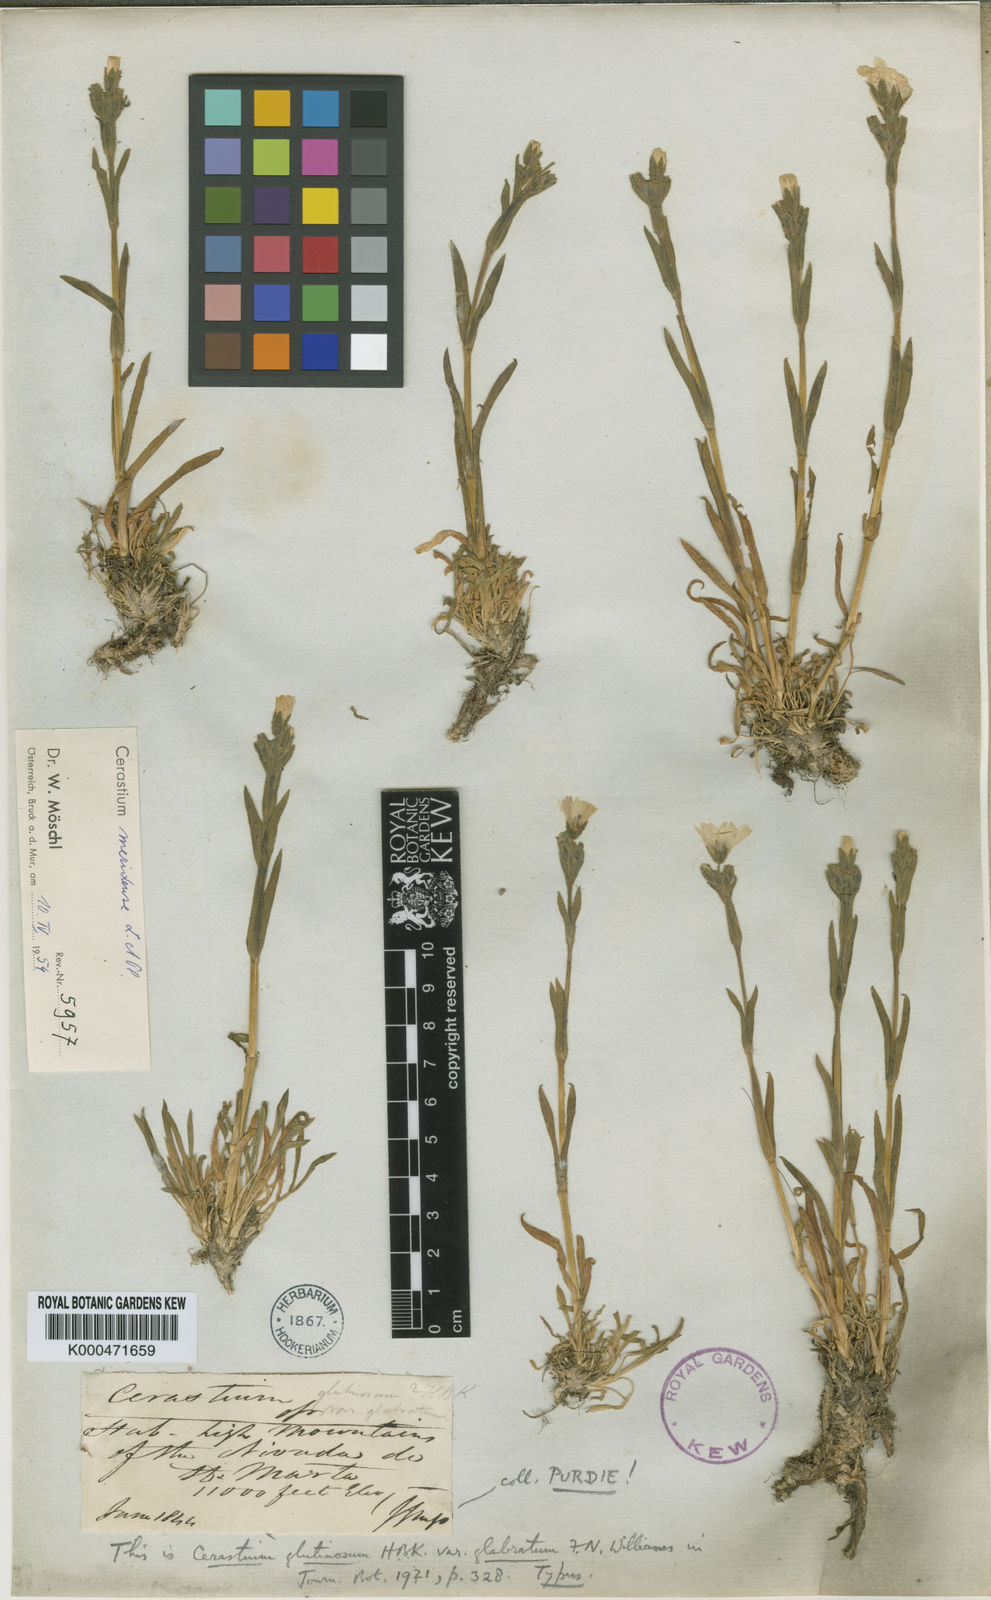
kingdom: Plantae
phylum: Tracheophyta
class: Magnoliopsida
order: Caryophyllales
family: Caryophyllaceae
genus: Cerastium
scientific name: Cerastium meridense
